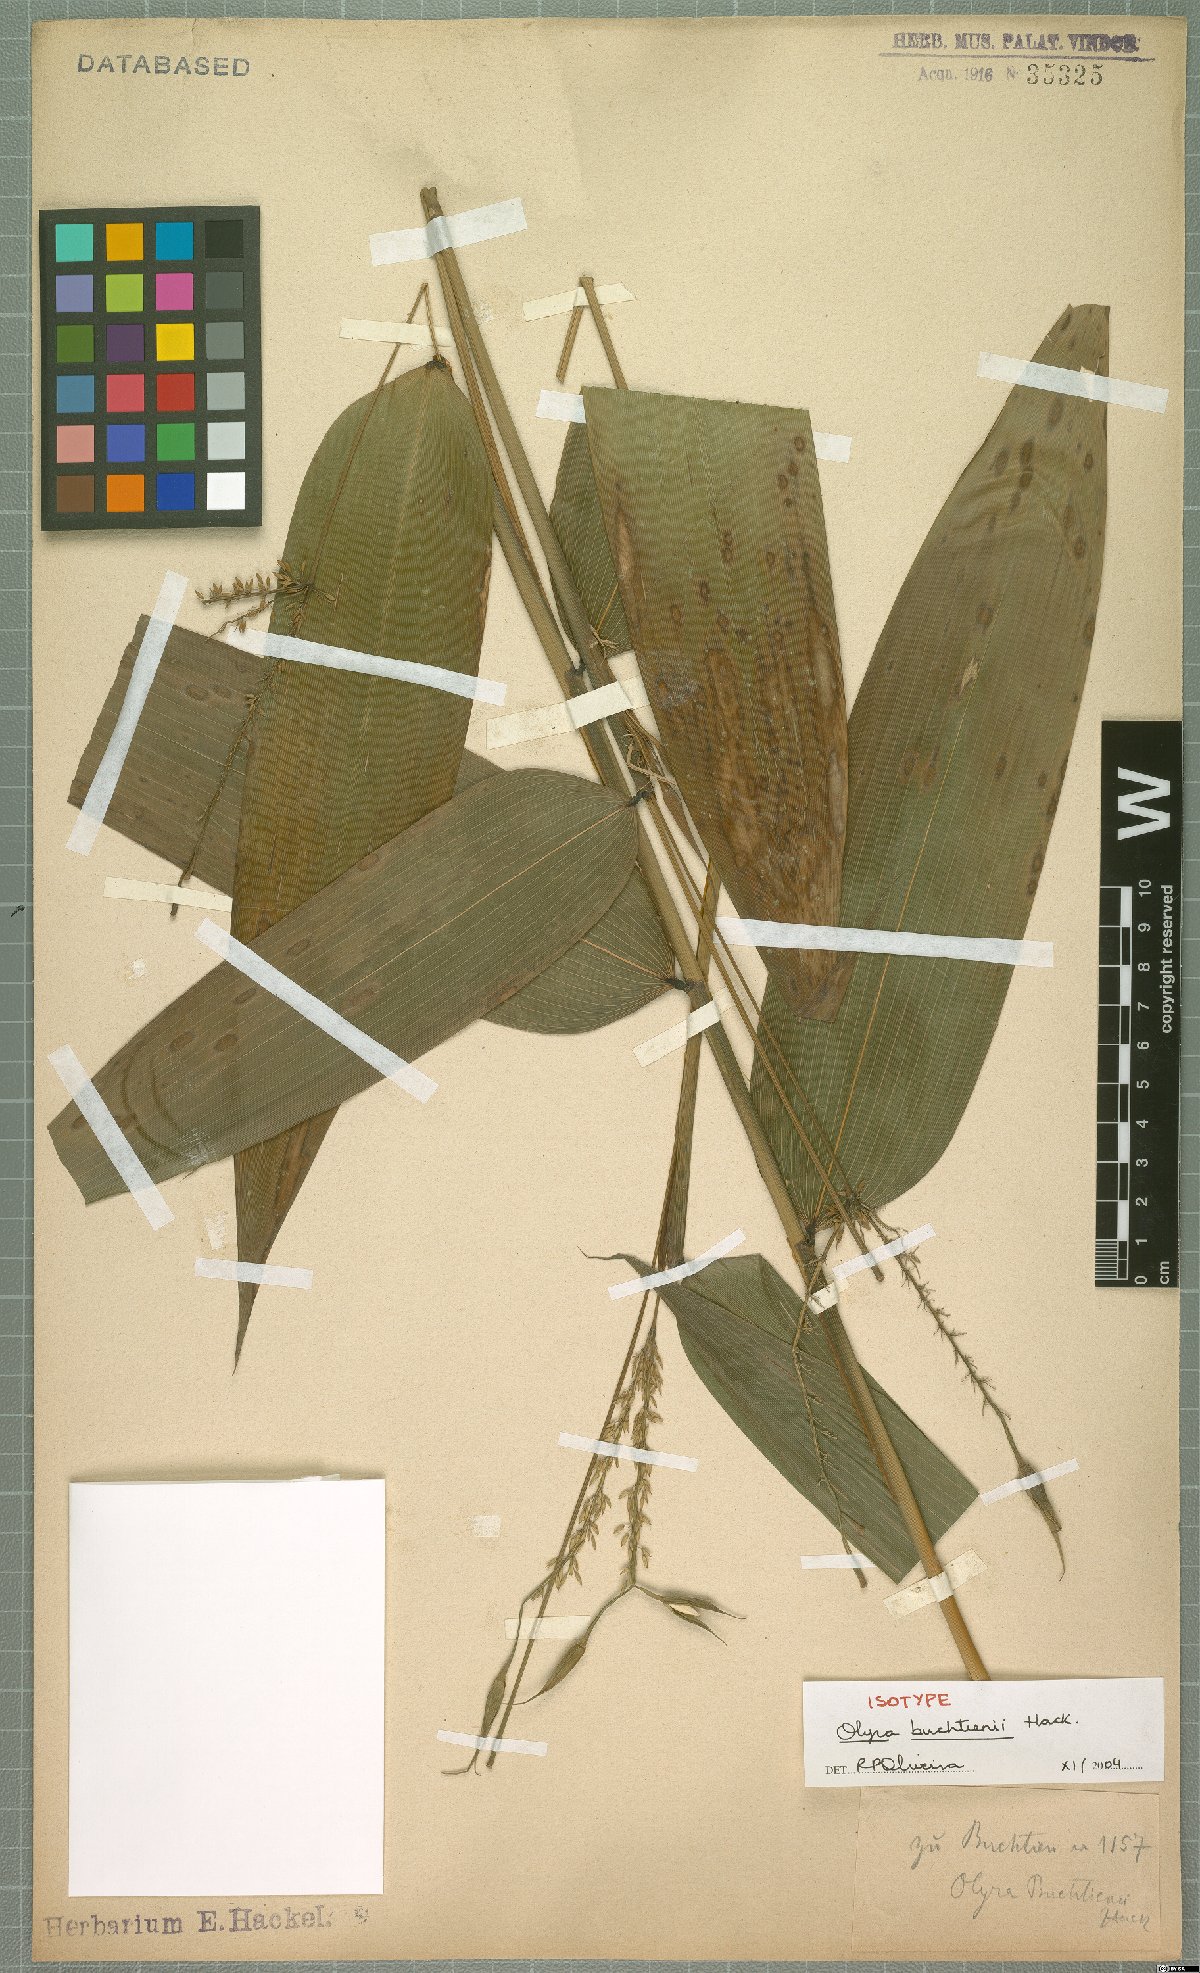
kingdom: Plantae
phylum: Tracheophyta
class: Liliopsida
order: Poales
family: Poaceae
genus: Olyra
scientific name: Olyra buchtienii
